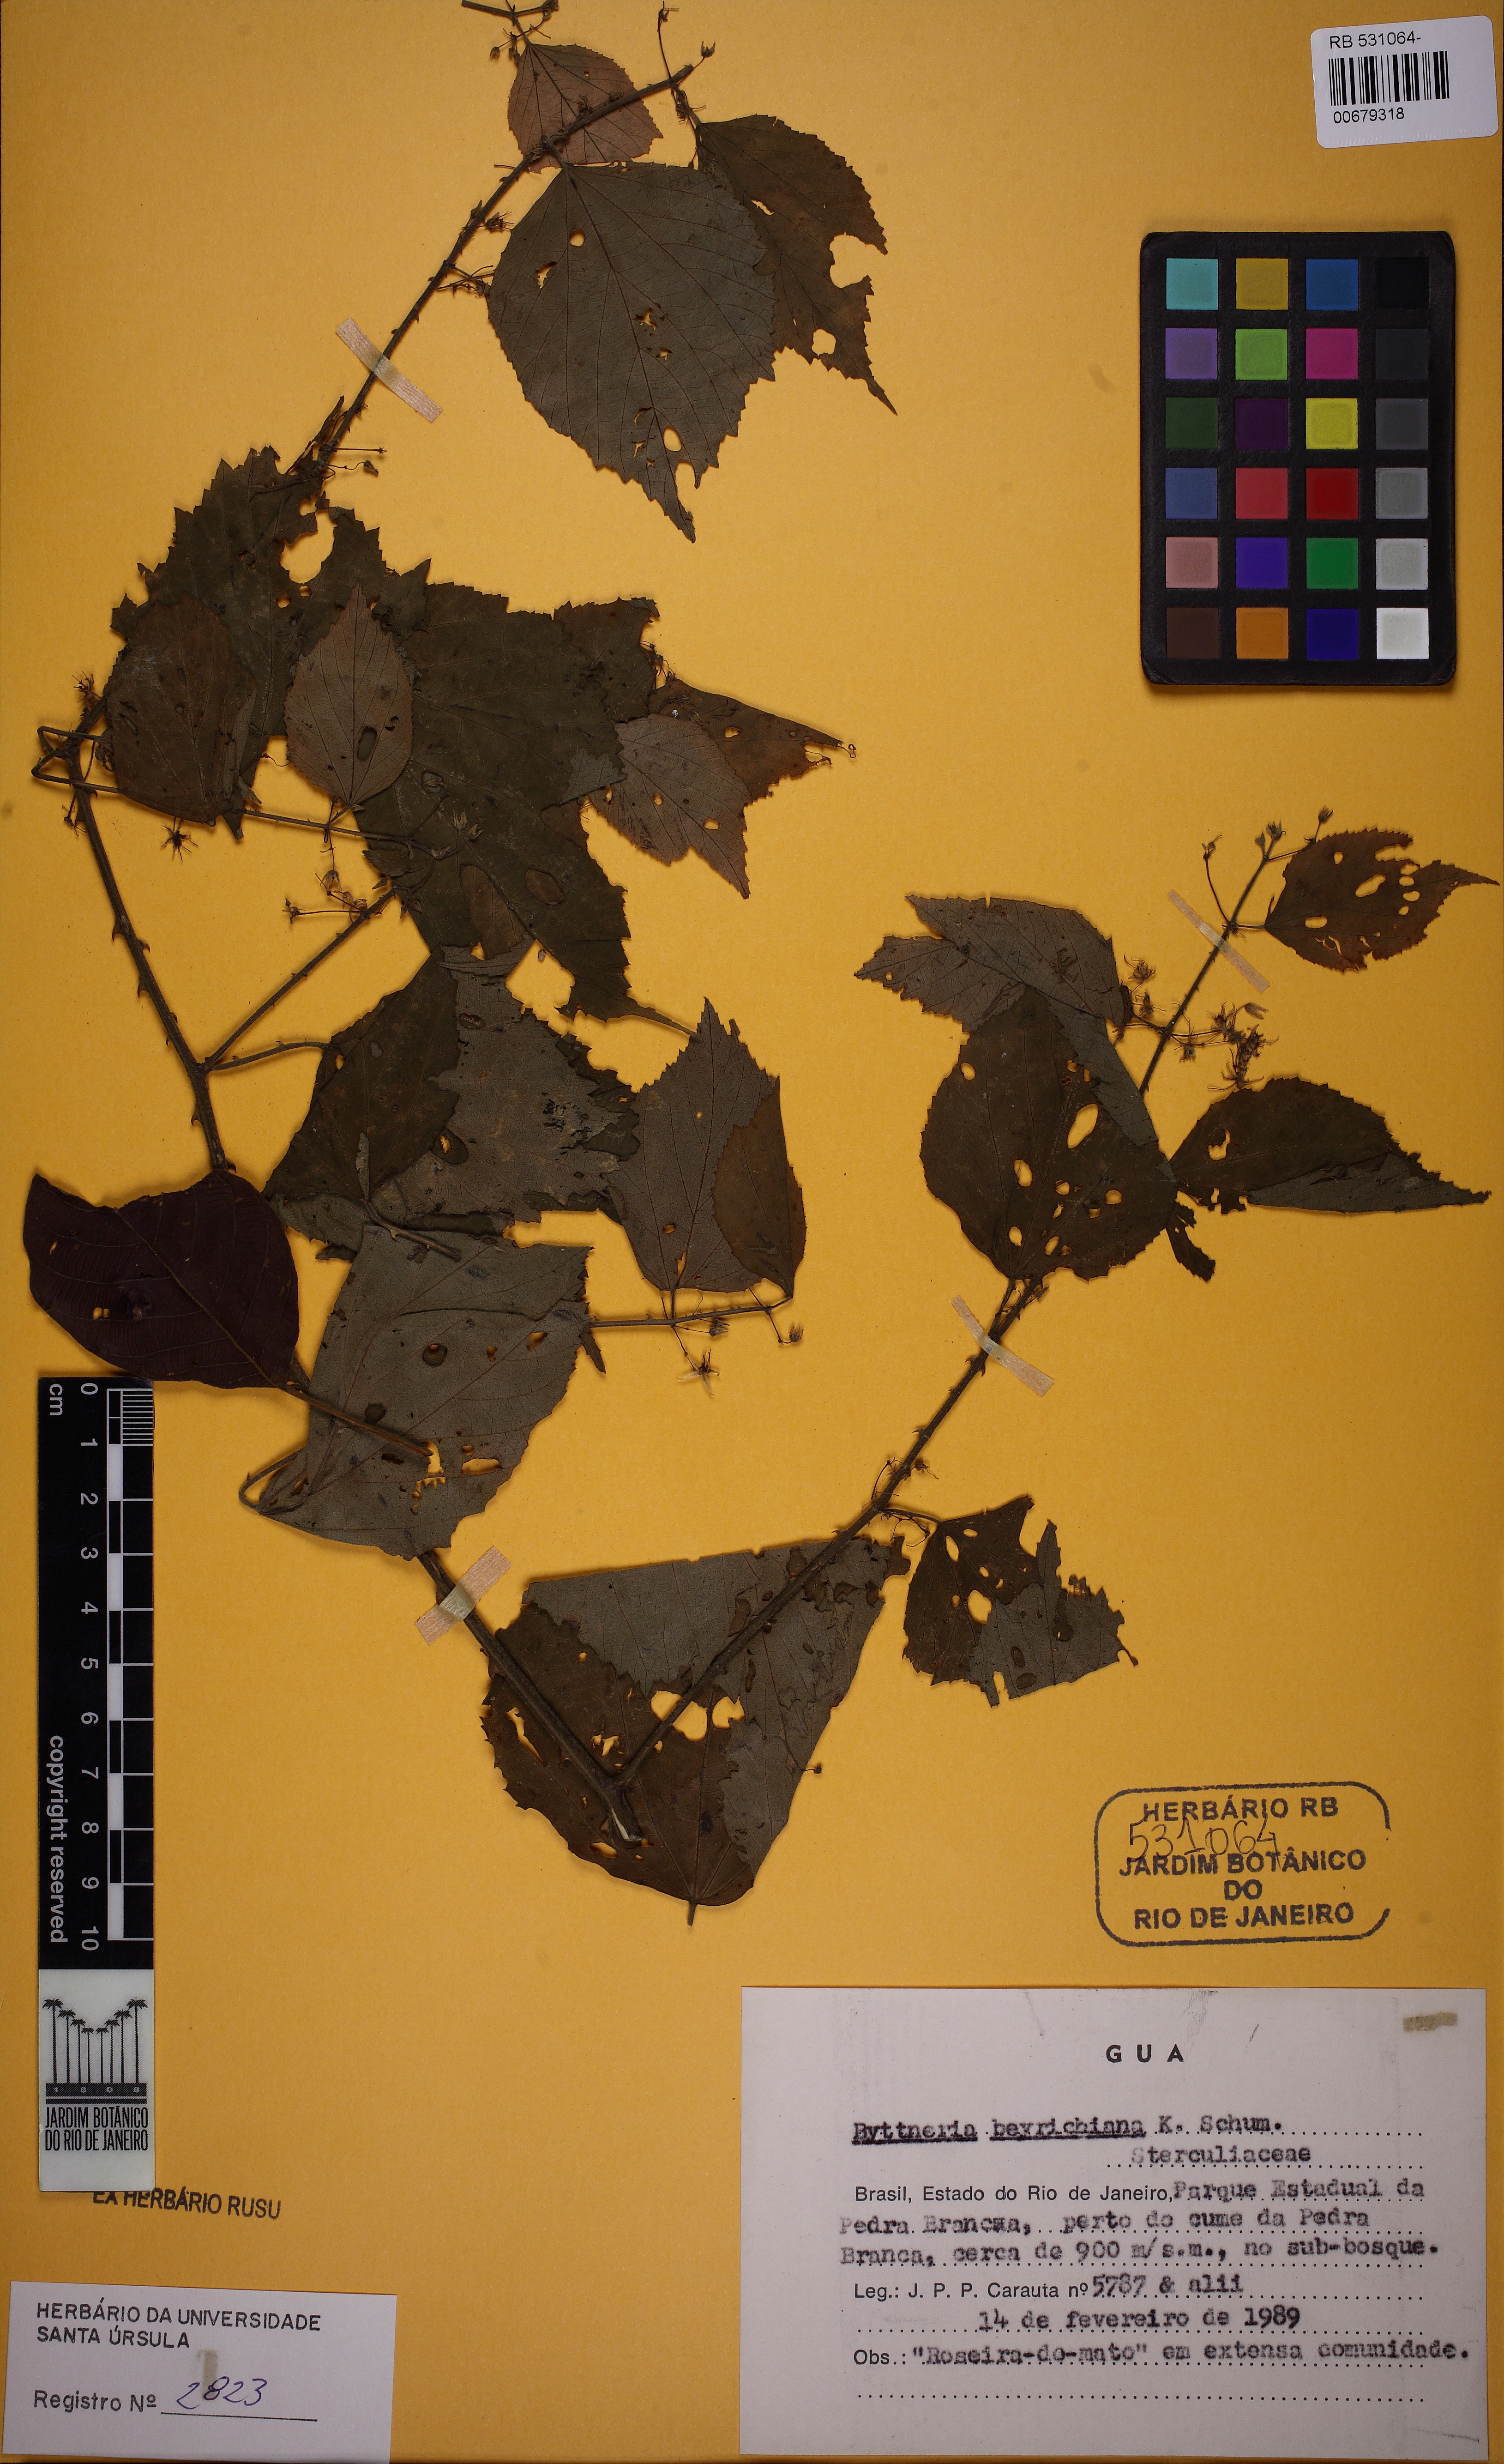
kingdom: Plantae
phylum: Tracheophyta
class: Magnoliopsida
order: Malvales
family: Malvaceae
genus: Byttneria
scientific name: Byttneria beyrichiana
